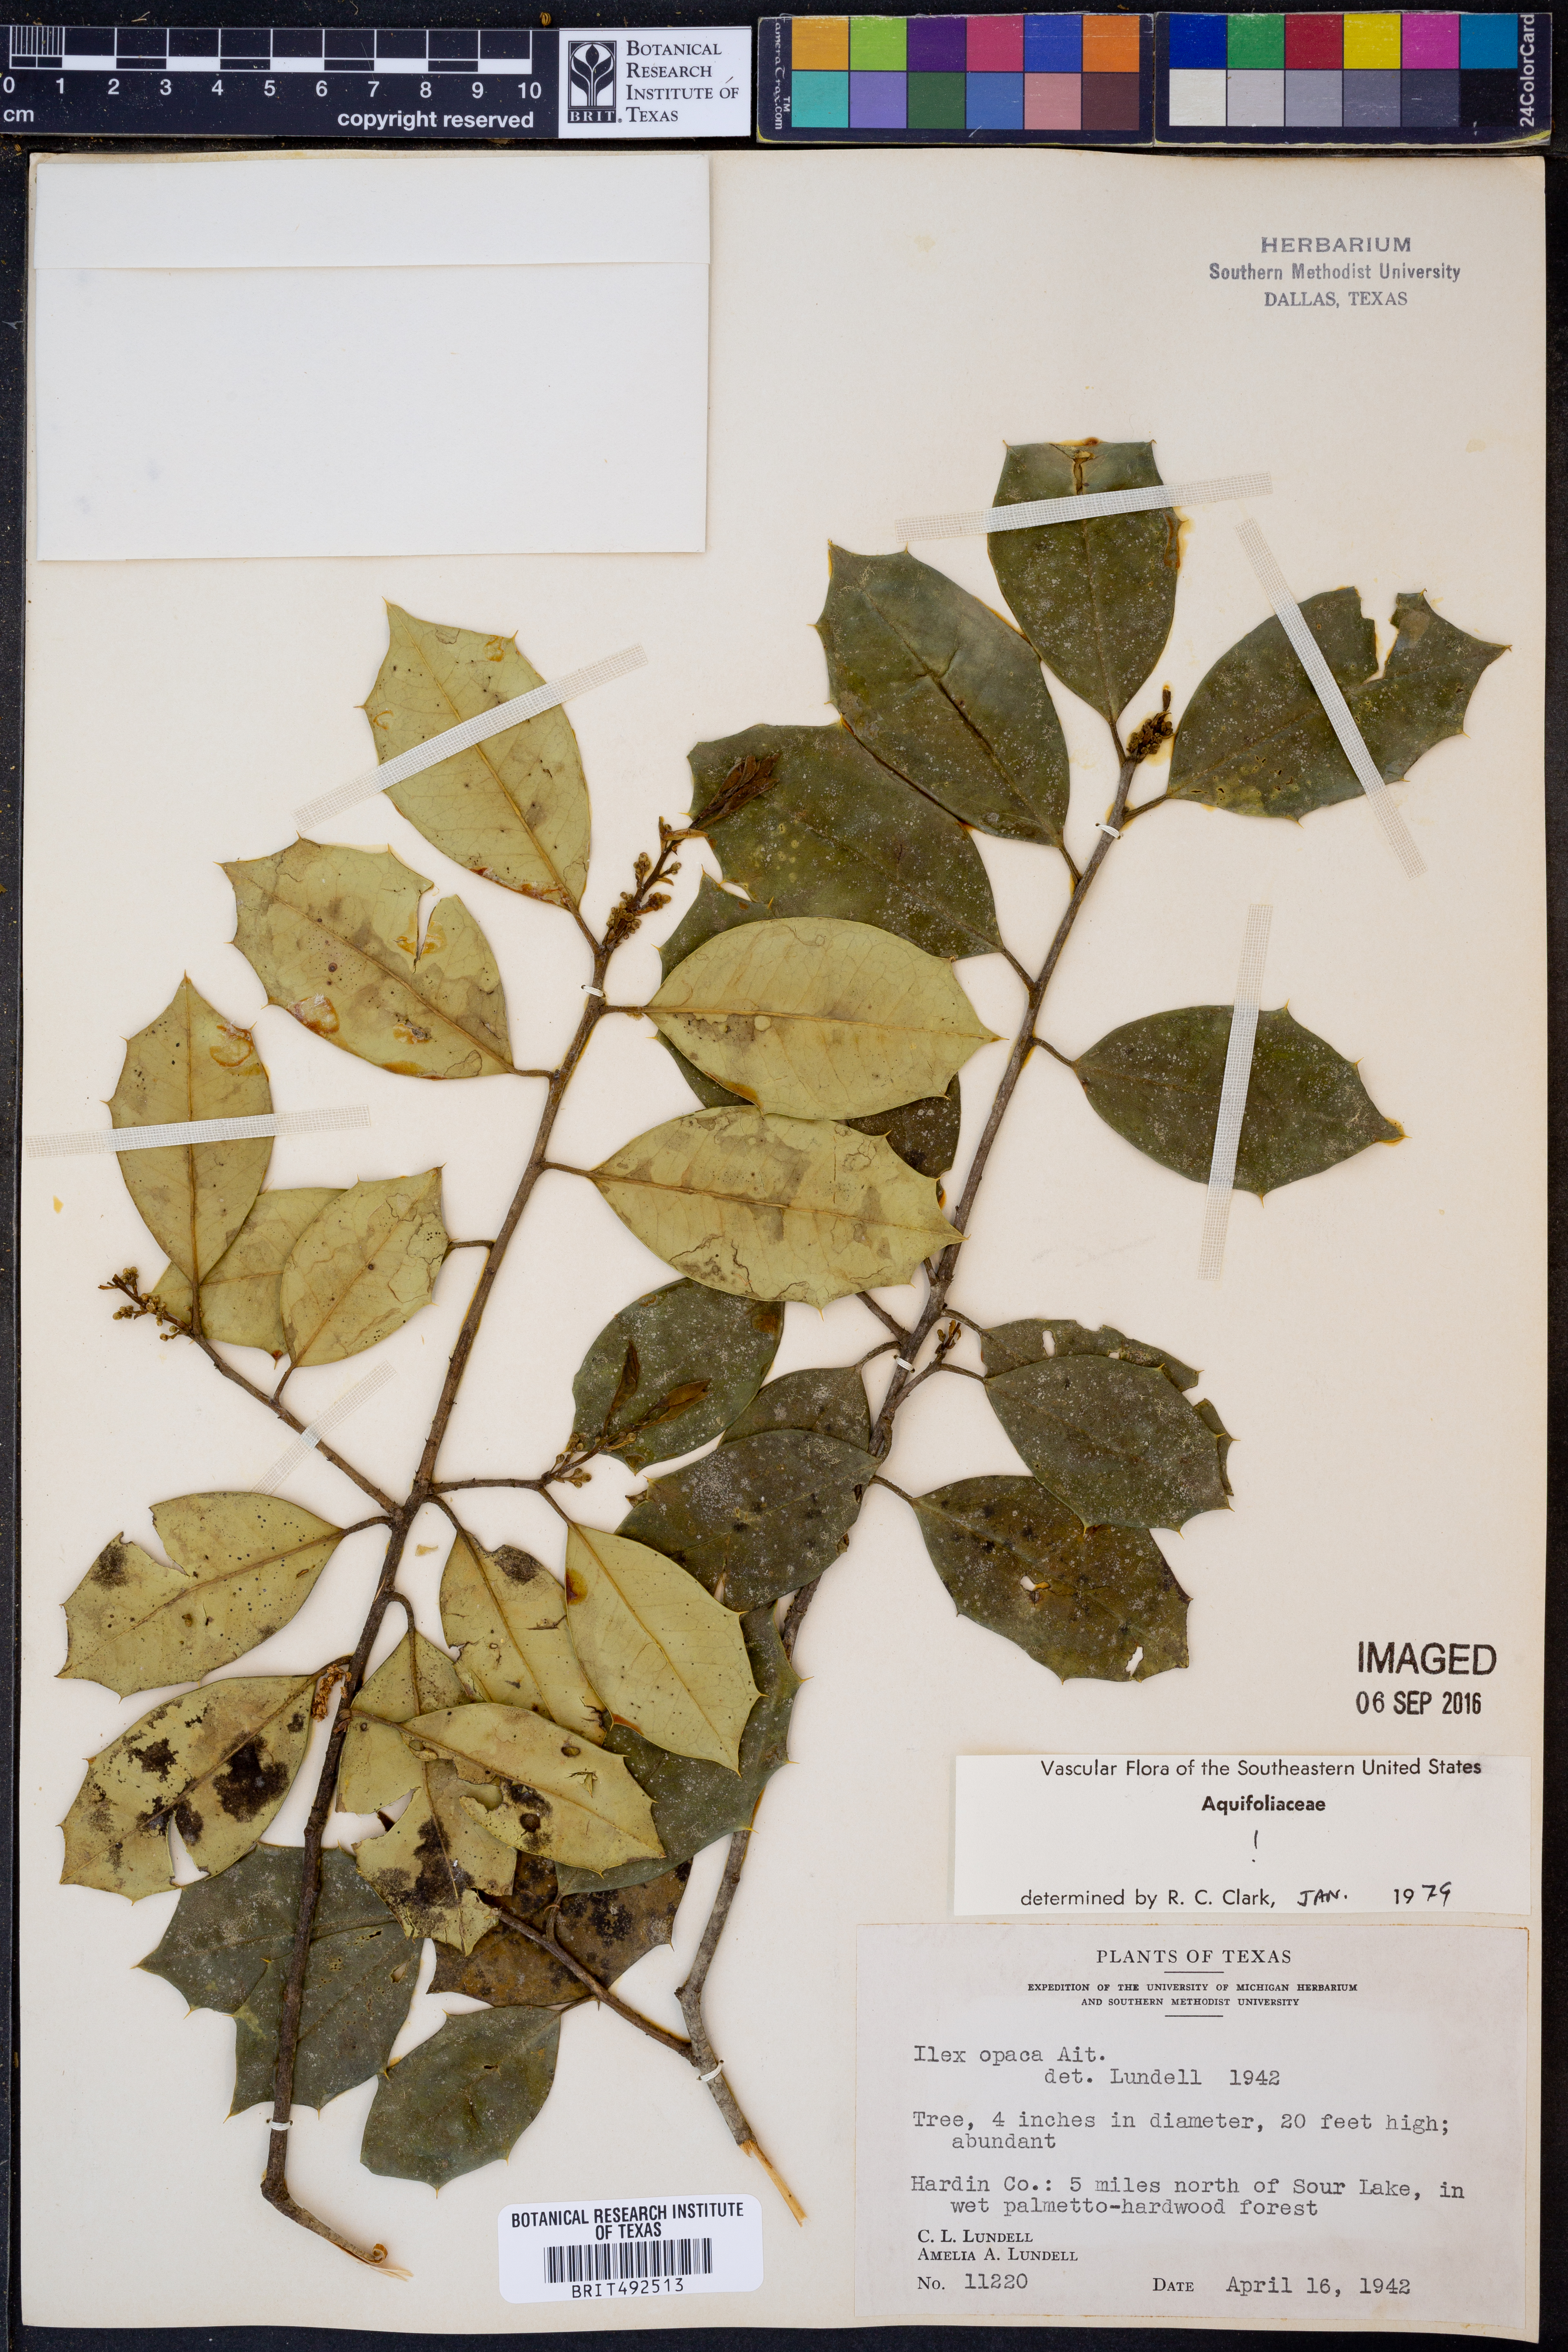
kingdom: Plantae
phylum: Tracheophyta
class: Magnoliopsida
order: Aquifoliales
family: Aquifoliaceae
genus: Ilex
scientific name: Ilex opaca
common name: American holly
